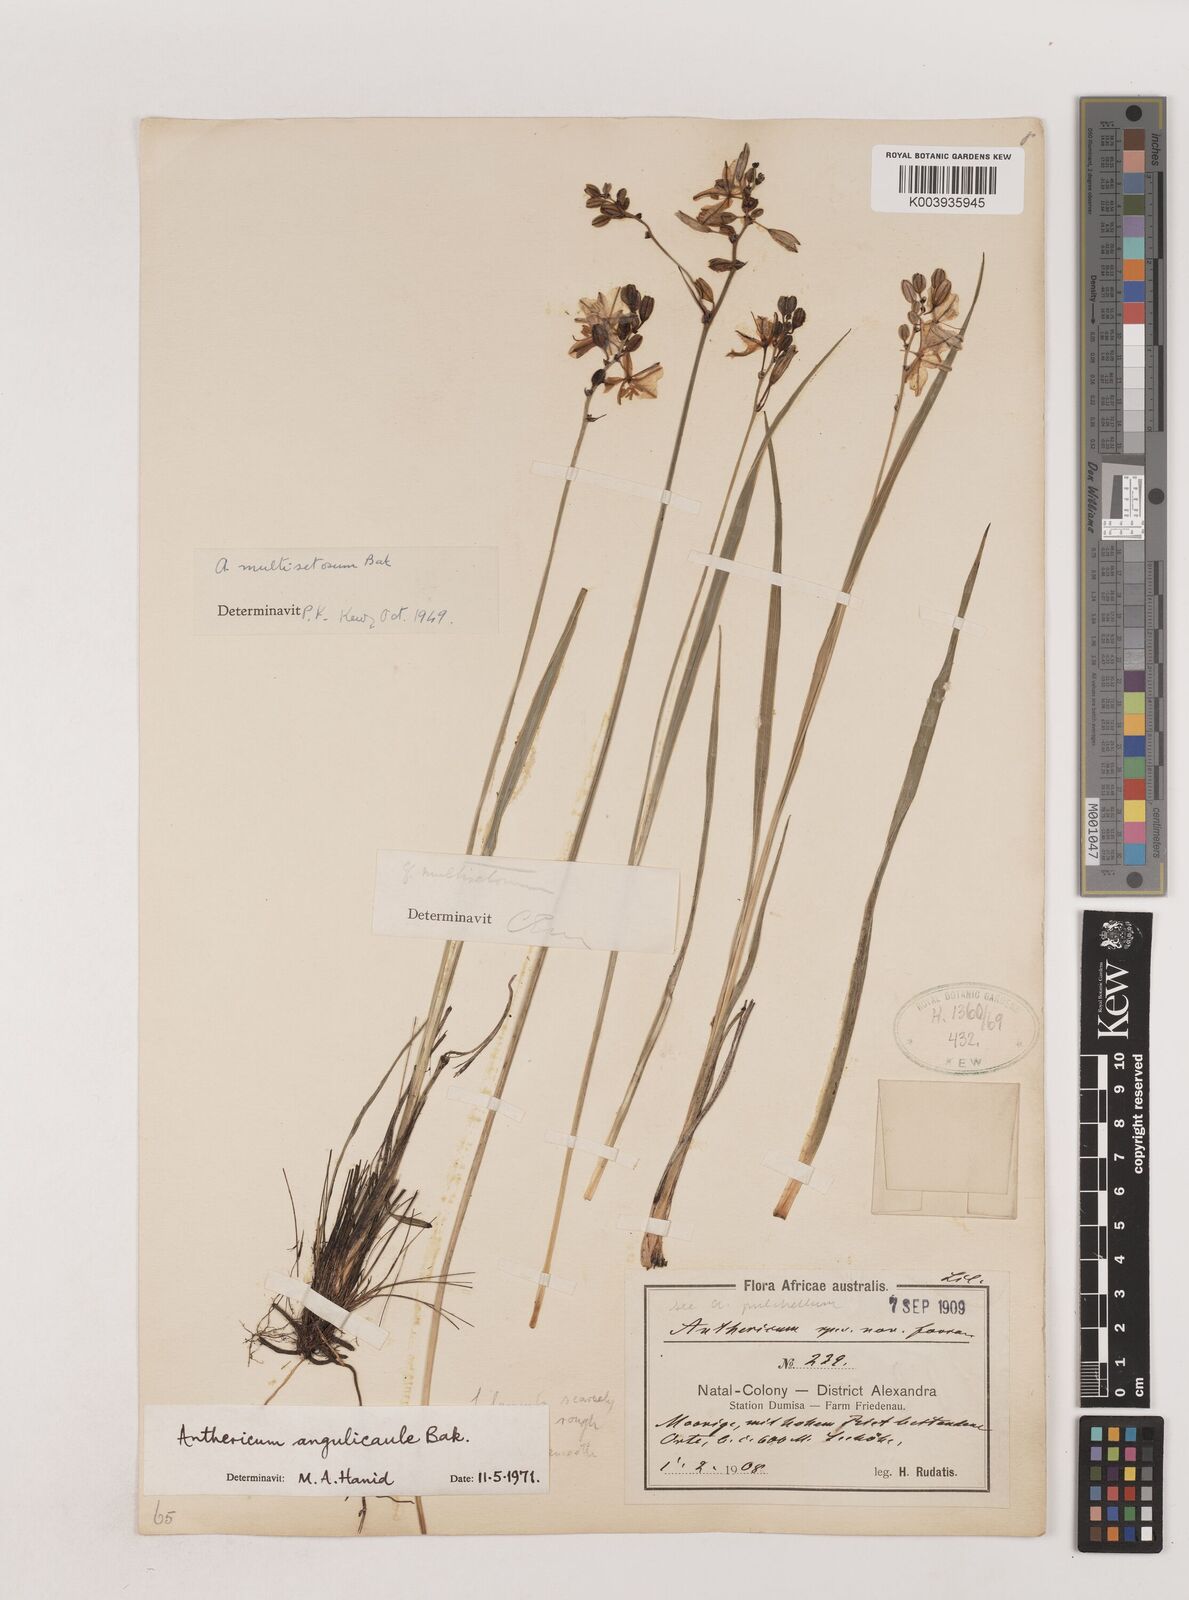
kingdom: Plantae
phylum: Tracheophyta
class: Liliopsida
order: Asparagales
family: Asparagaceae
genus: Chlorophytum
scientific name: Chlorophytum angulicaule
